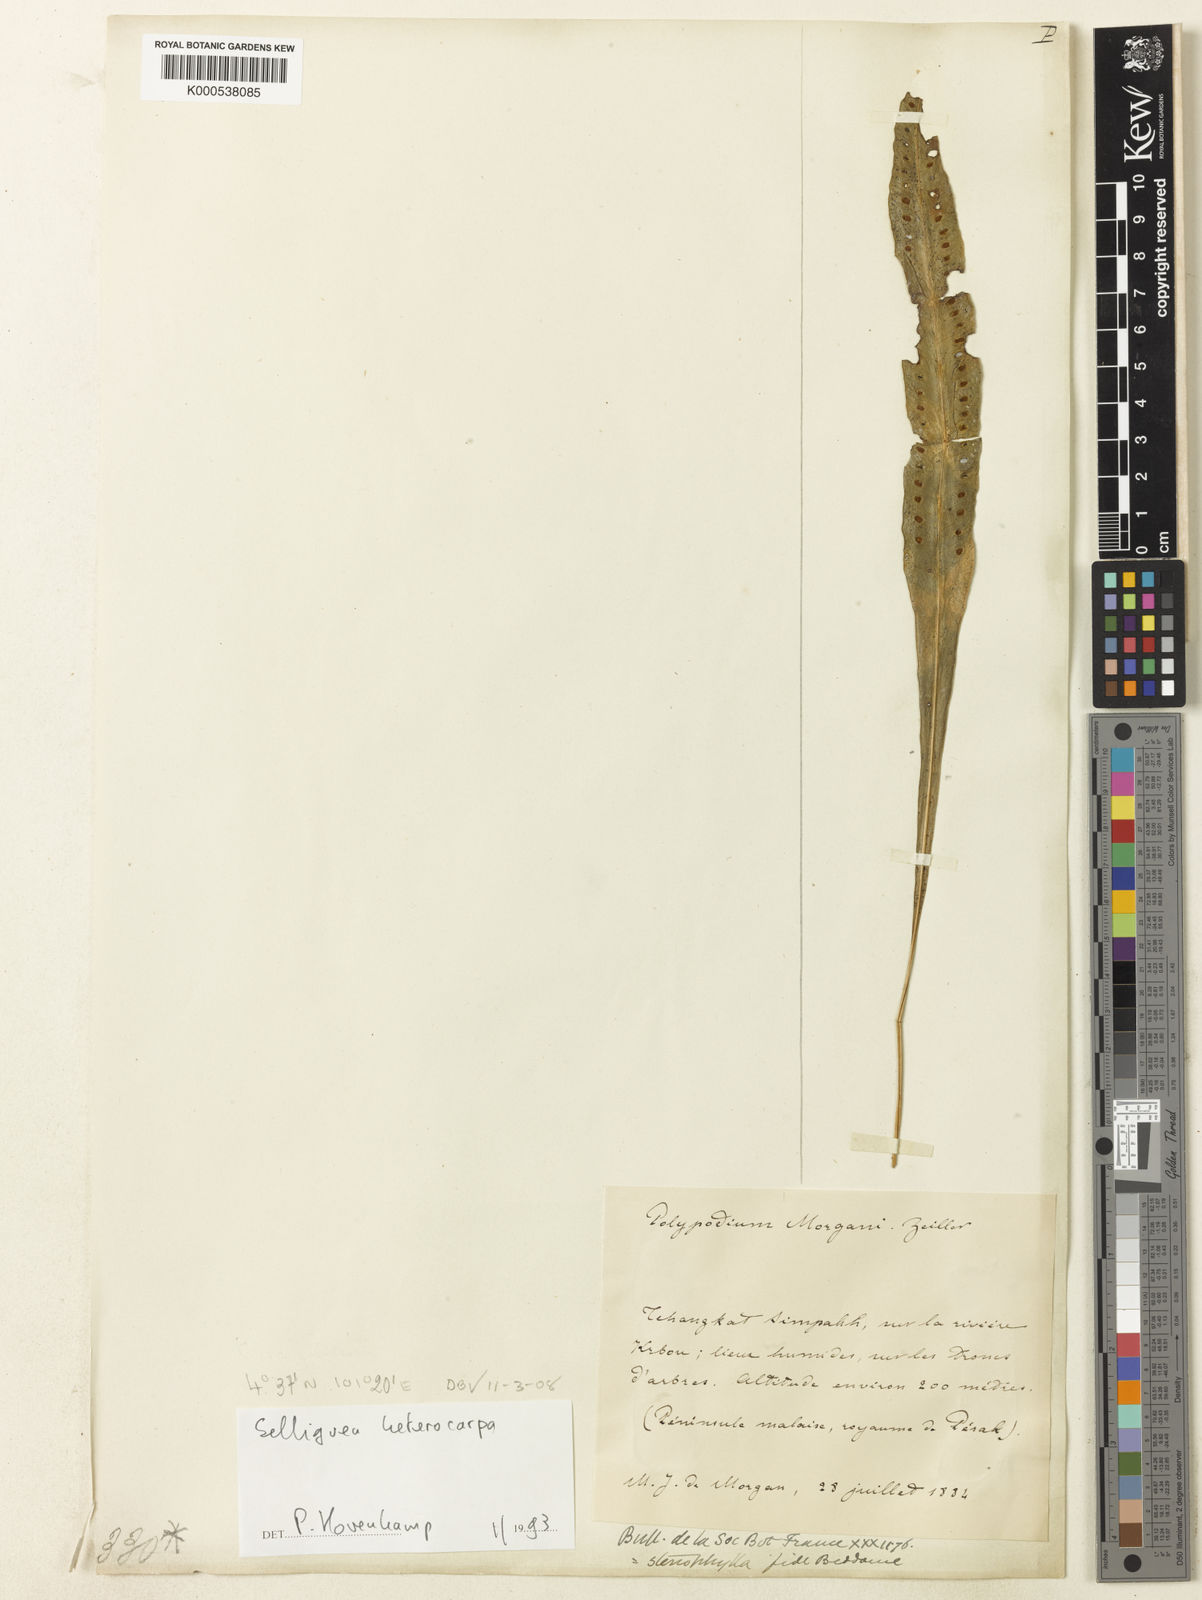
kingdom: Plantae
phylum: Tracheophyta
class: Polypodiopsida
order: Polypodiales
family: Polypodiaceae
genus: Selliguea
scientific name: Selliguea
